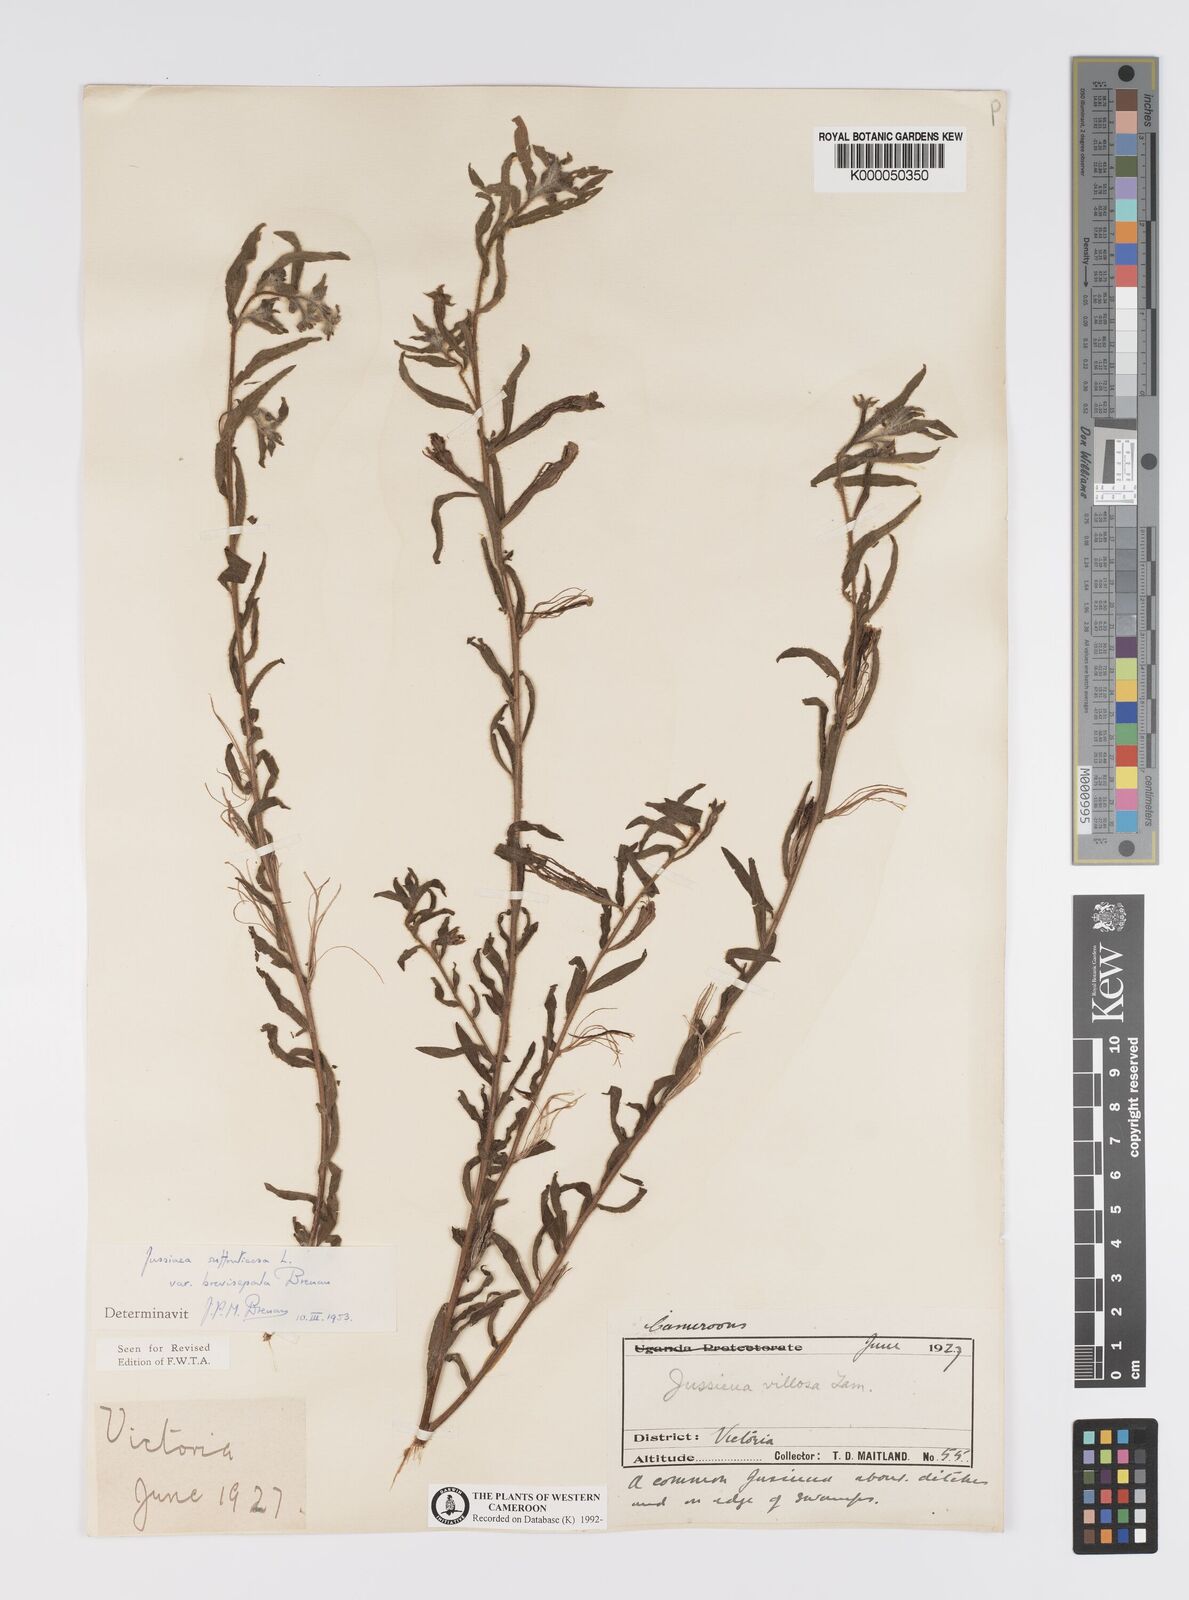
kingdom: Plantae
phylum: Tracheophyta
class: Magnoliopsida
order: Myrtales
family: Onagraceae
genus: Ludwigia
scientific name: Ludwigia octovalvis
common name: Water-primrose
